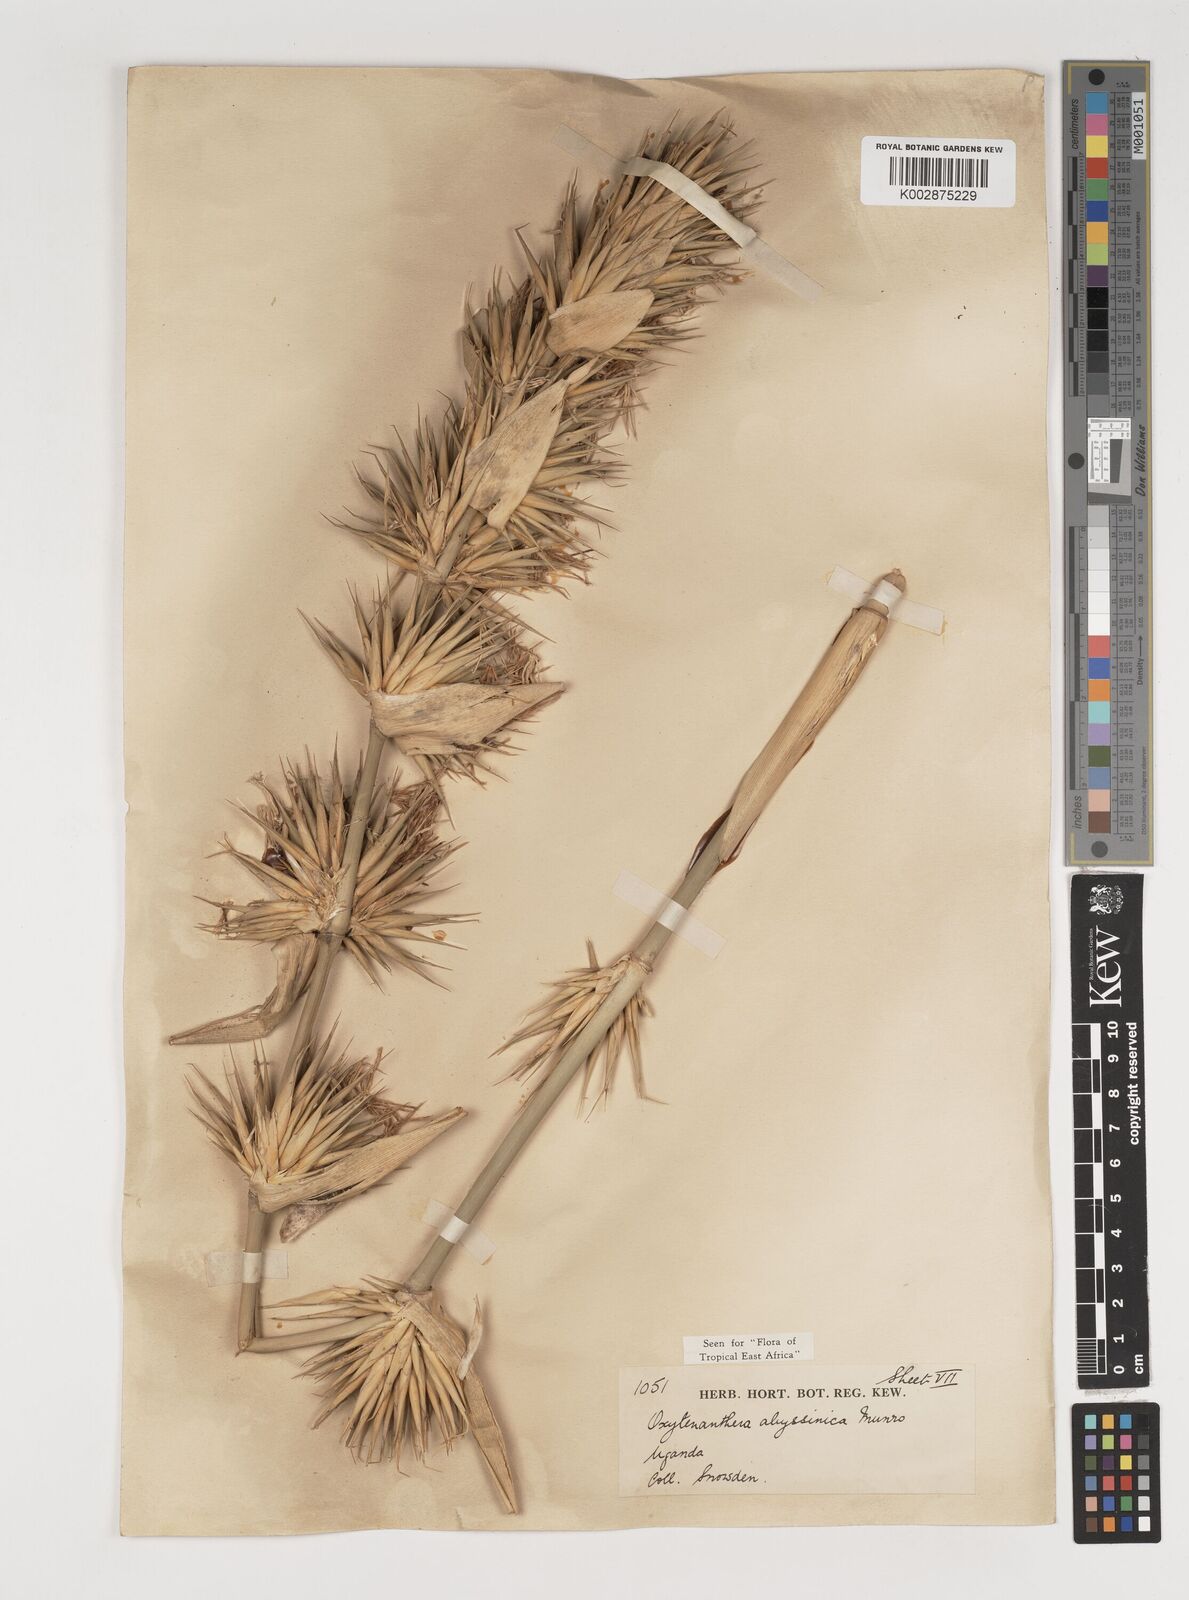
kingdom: Plantae
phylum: Tracheophyta
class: Liliopsida
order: Poales
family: Poaceae
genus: Oxytenanthera
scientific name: Oxytenanthera abyssinica
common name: Wine bamboo
